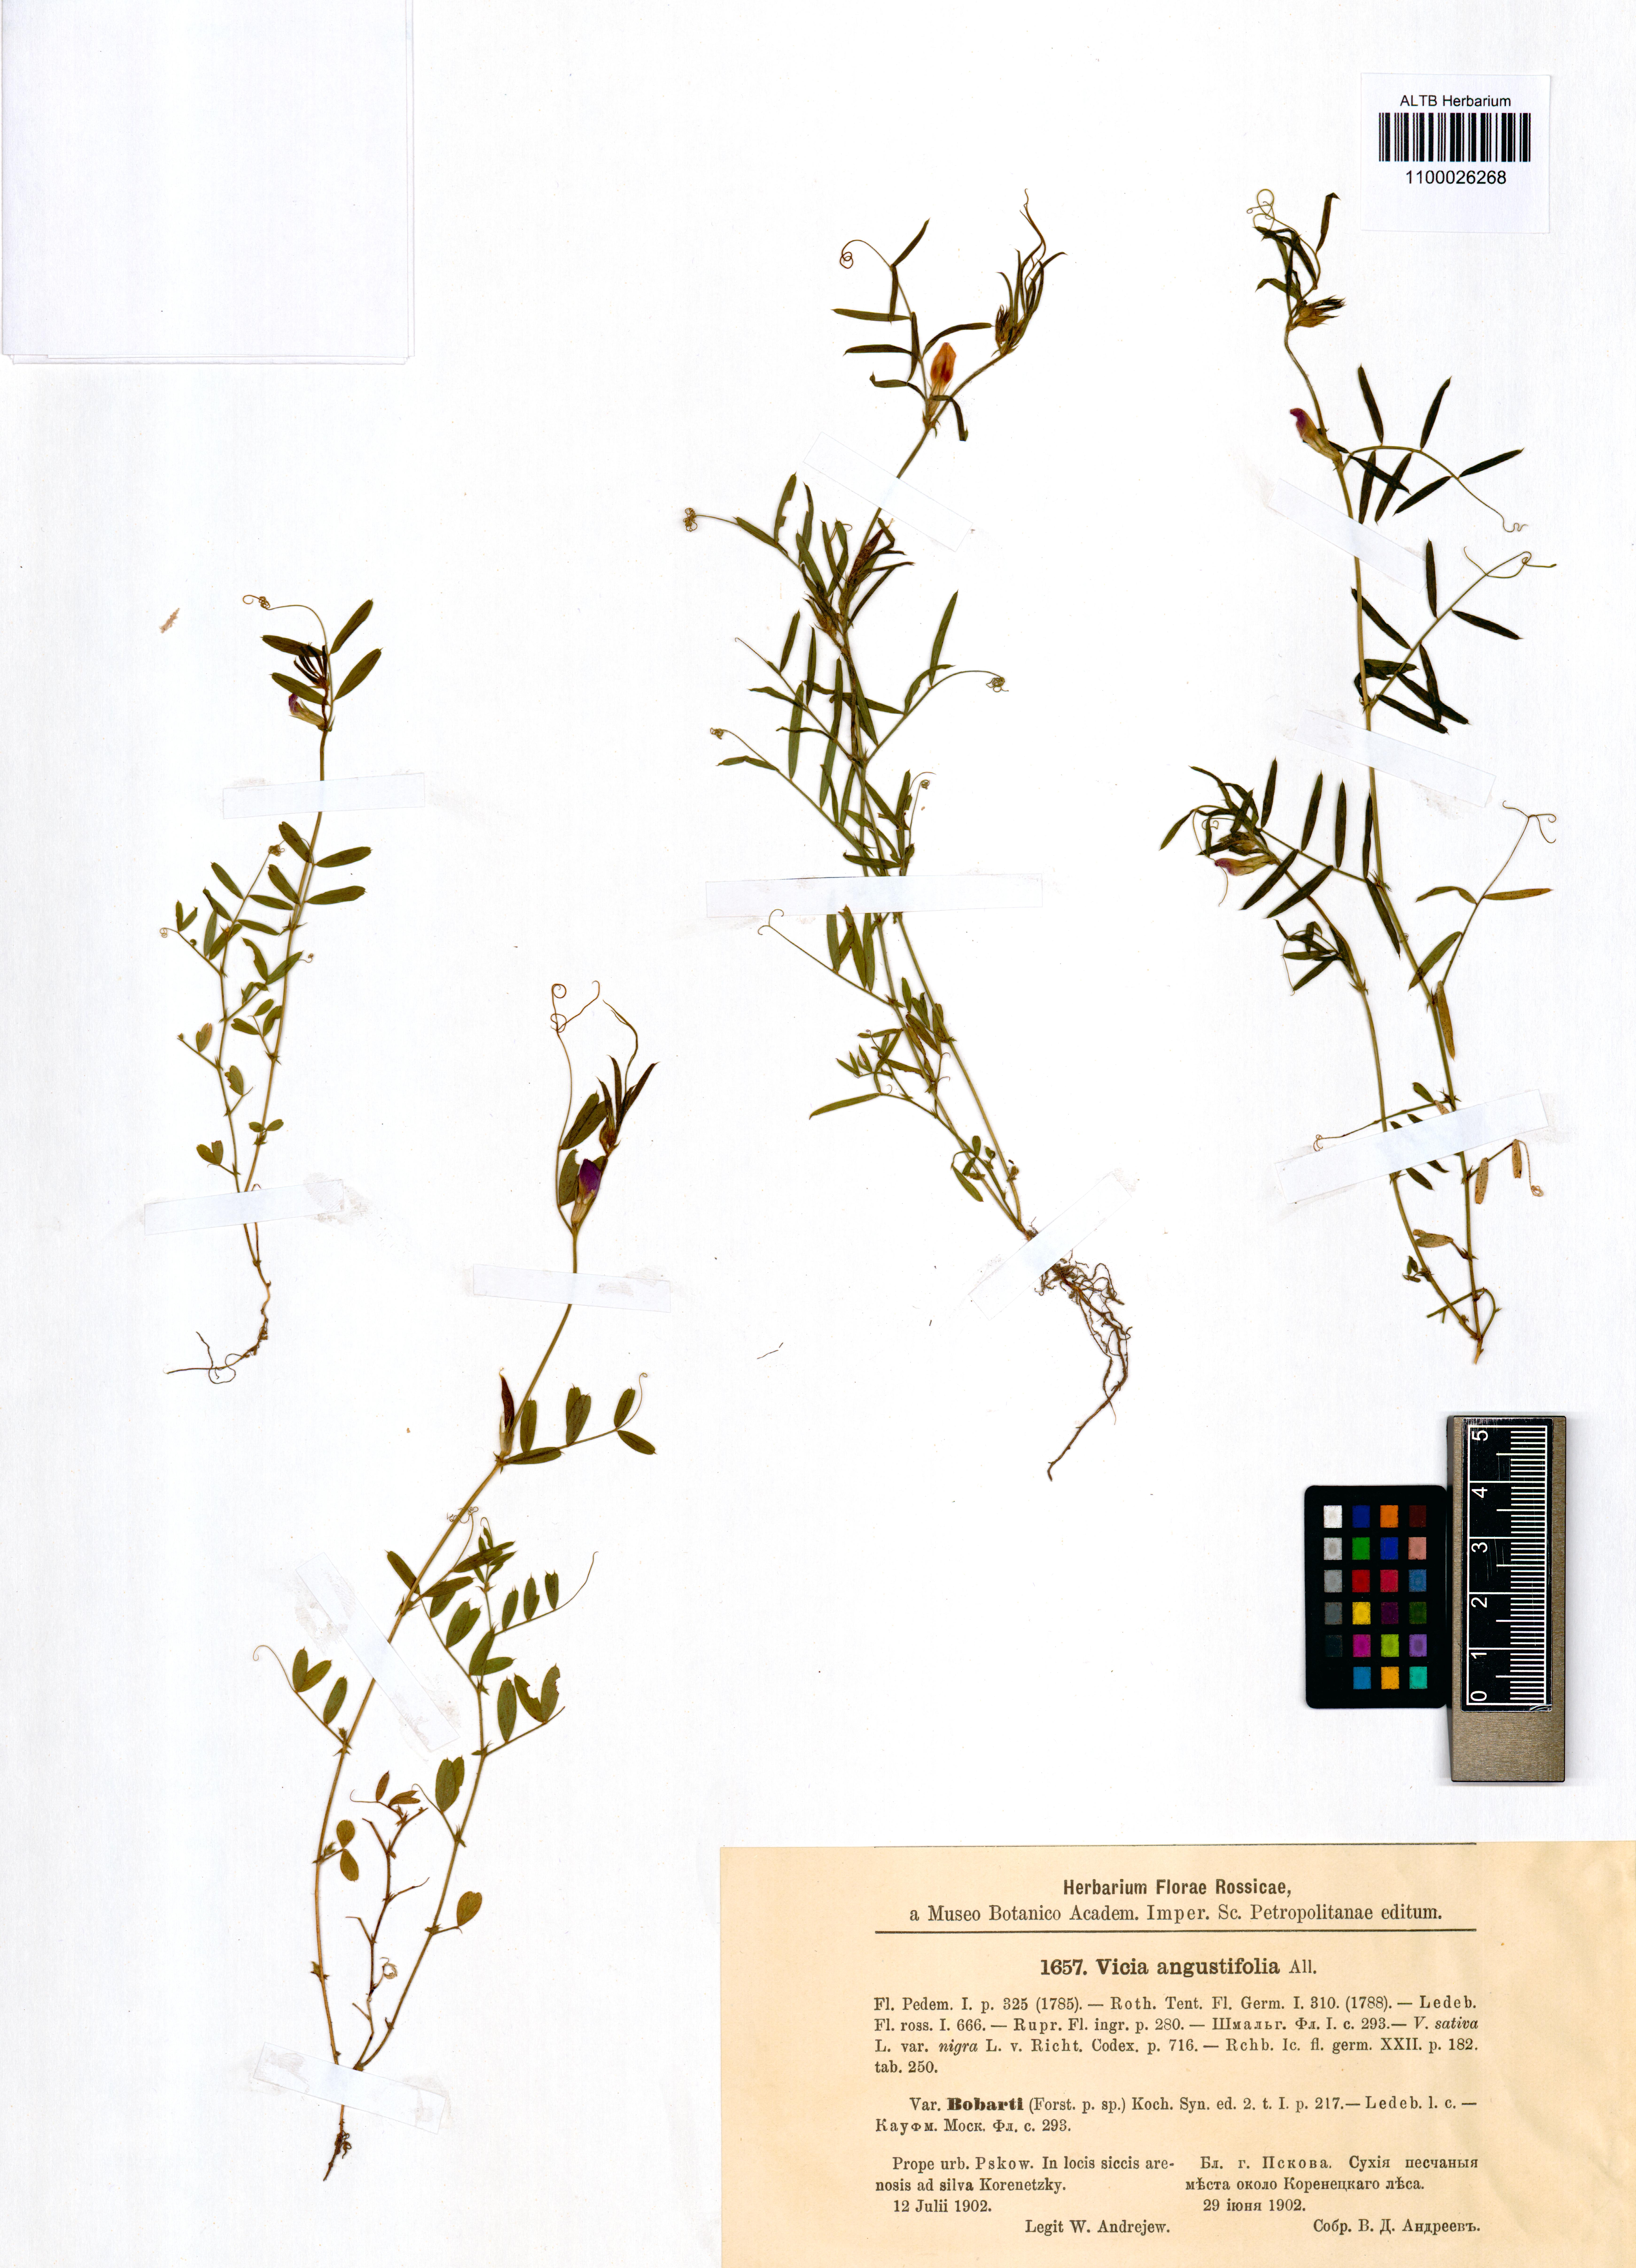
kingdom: Plantae
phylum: Tracheophyta
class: Magnoliopsida
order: Fabales
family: Fabaceae
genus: Vicia
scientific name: Vicia sativa
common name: Garden vetch
